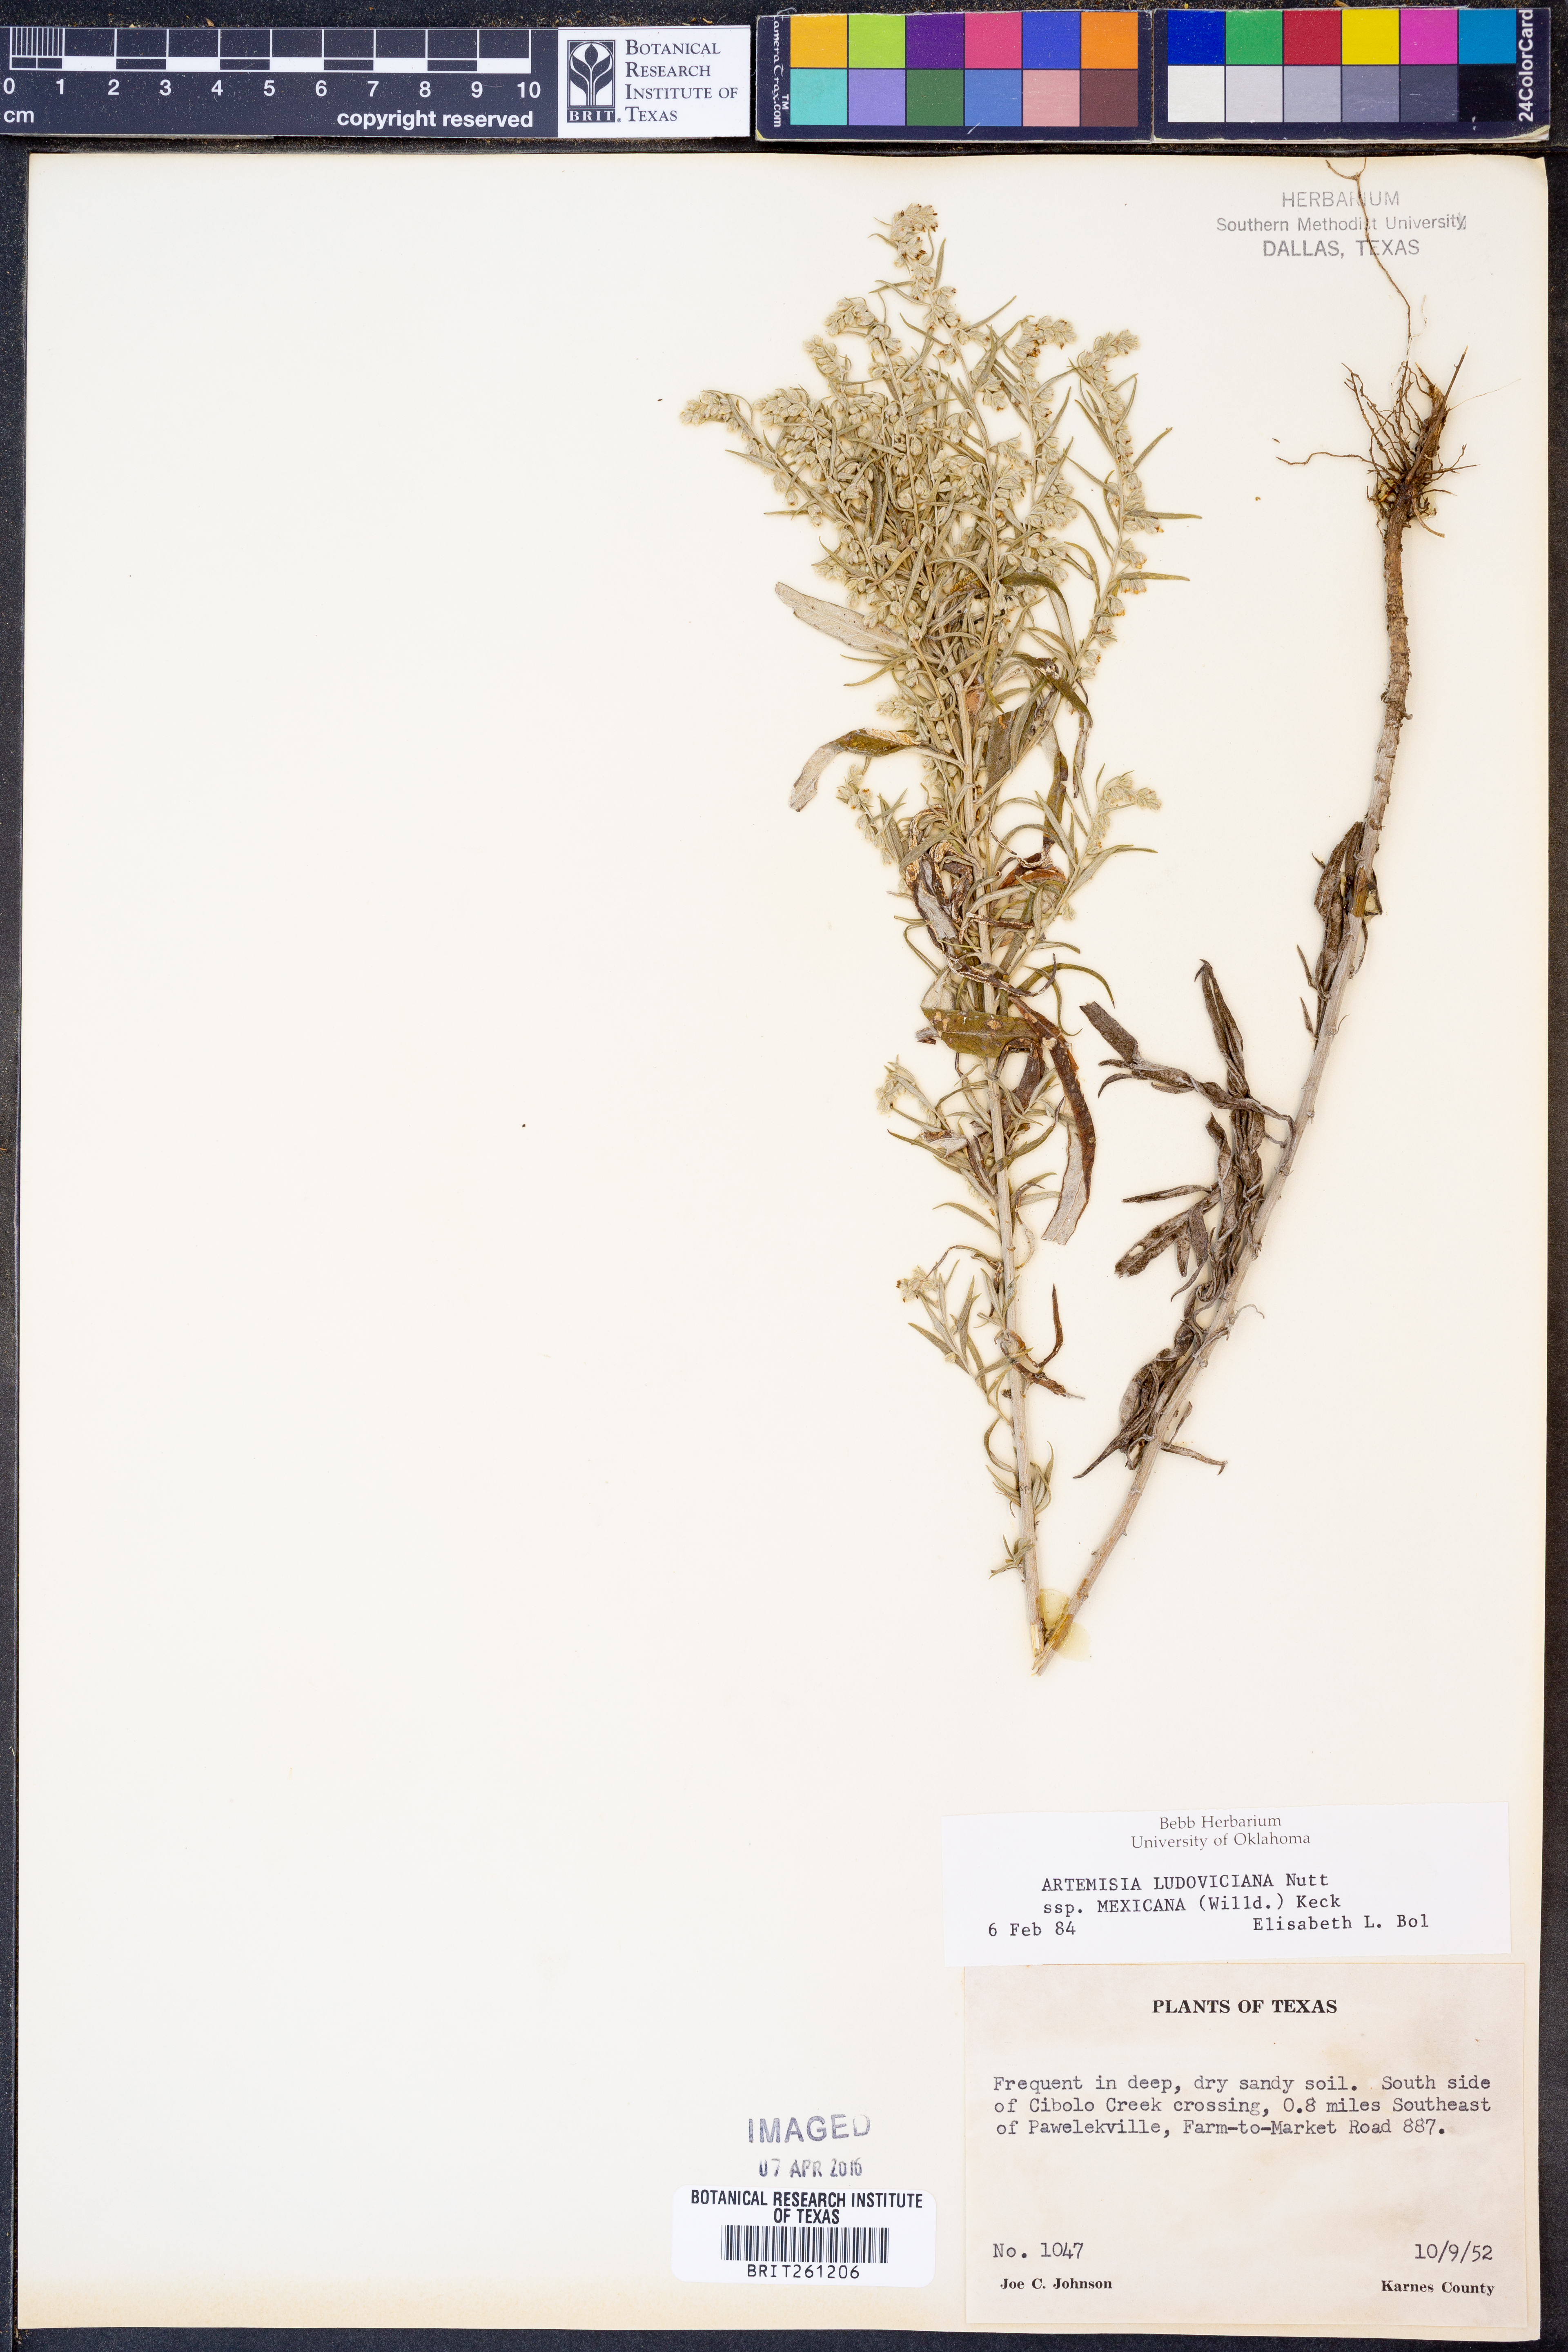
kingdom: Plantae
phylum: Tracheophyta
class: Magnoliopsida
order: Asterales
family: Asteraceae
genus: Artemisia
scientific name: Artemisia ludoviciana
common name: Western mugwort
